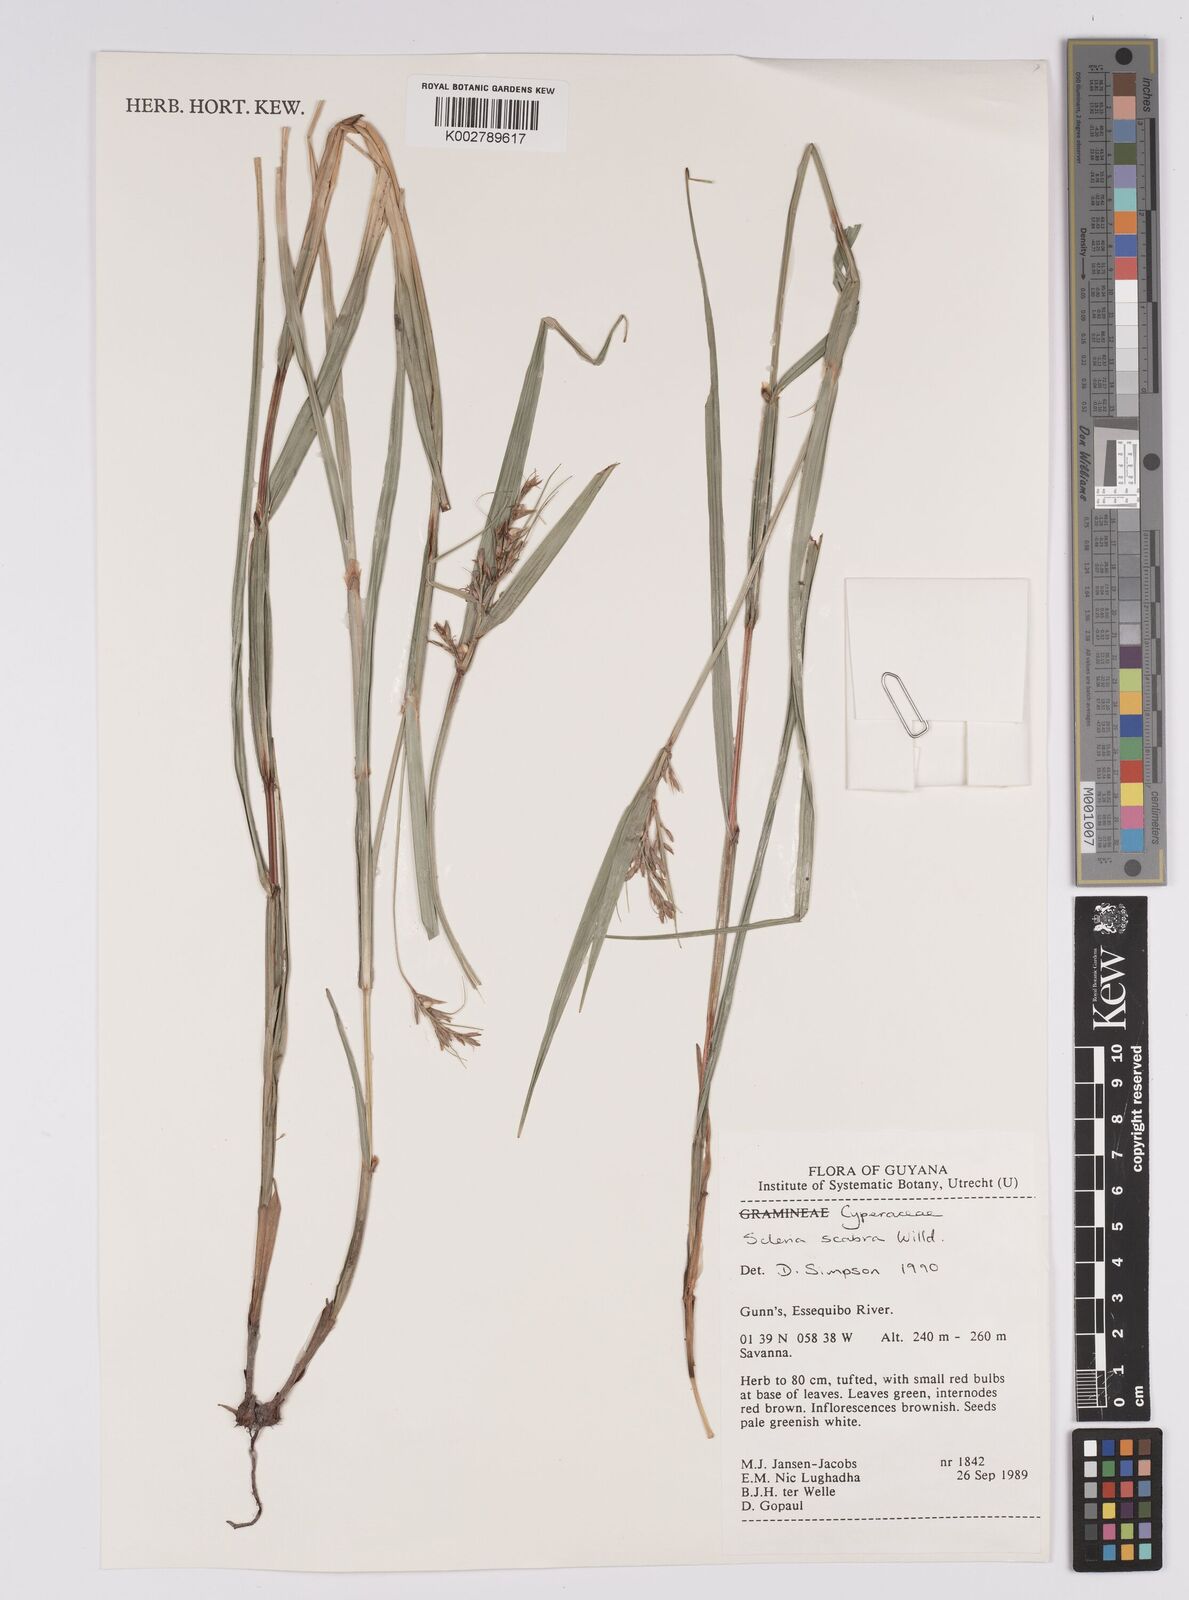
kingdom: Plantae
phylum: Tracheophyta
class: Liliopsida
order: Poales
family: Cyperaceae
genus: Scleria
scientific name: Scleria scabra
